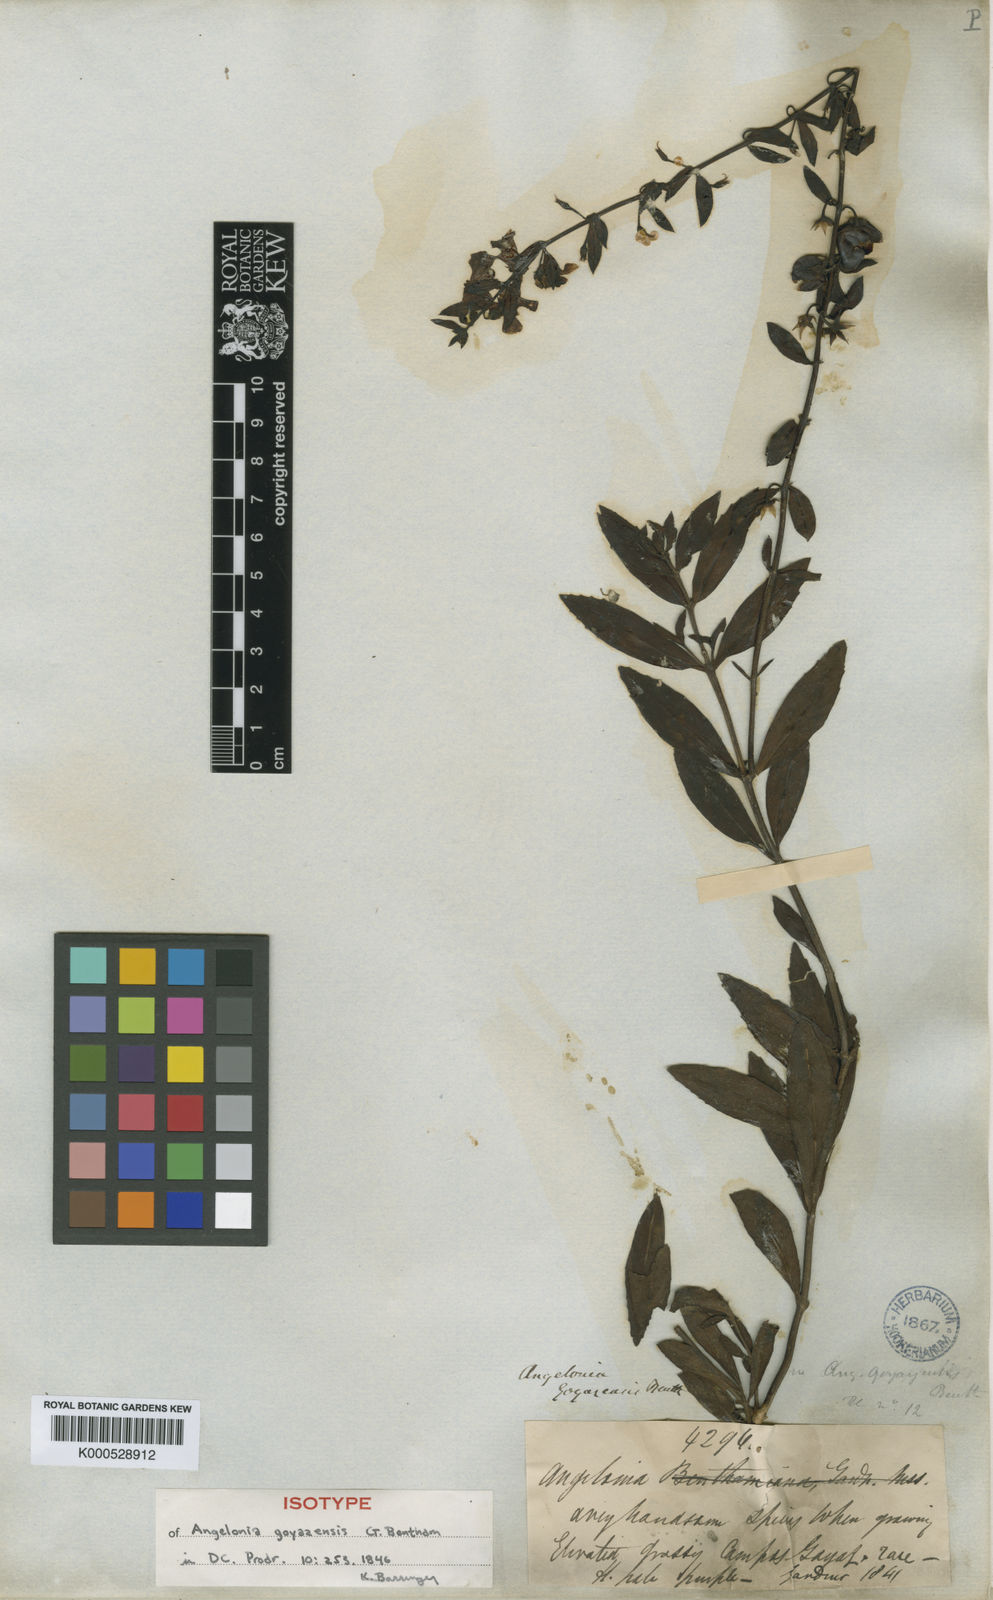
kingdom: Plantae
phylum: Tracheophyta
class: Magnoliopsida
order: Lamiales
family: Plantaginaceae
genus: Angelonia
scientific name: Angelonia goyazensis
